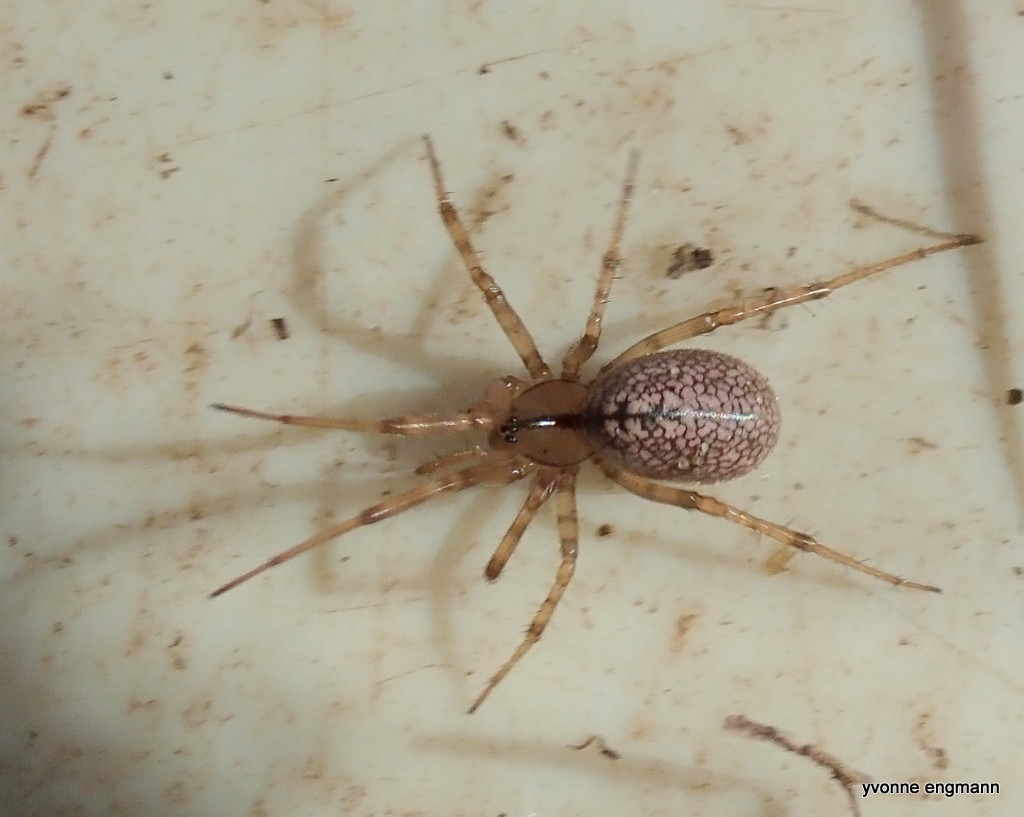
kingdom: Animalia
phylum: Arthropoda
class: Arachnida
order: Araneae
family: Linyphiidae
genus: Stemonyphantes
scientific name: Stemonyphantes lineatus
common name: Stribet baldakinspinder
